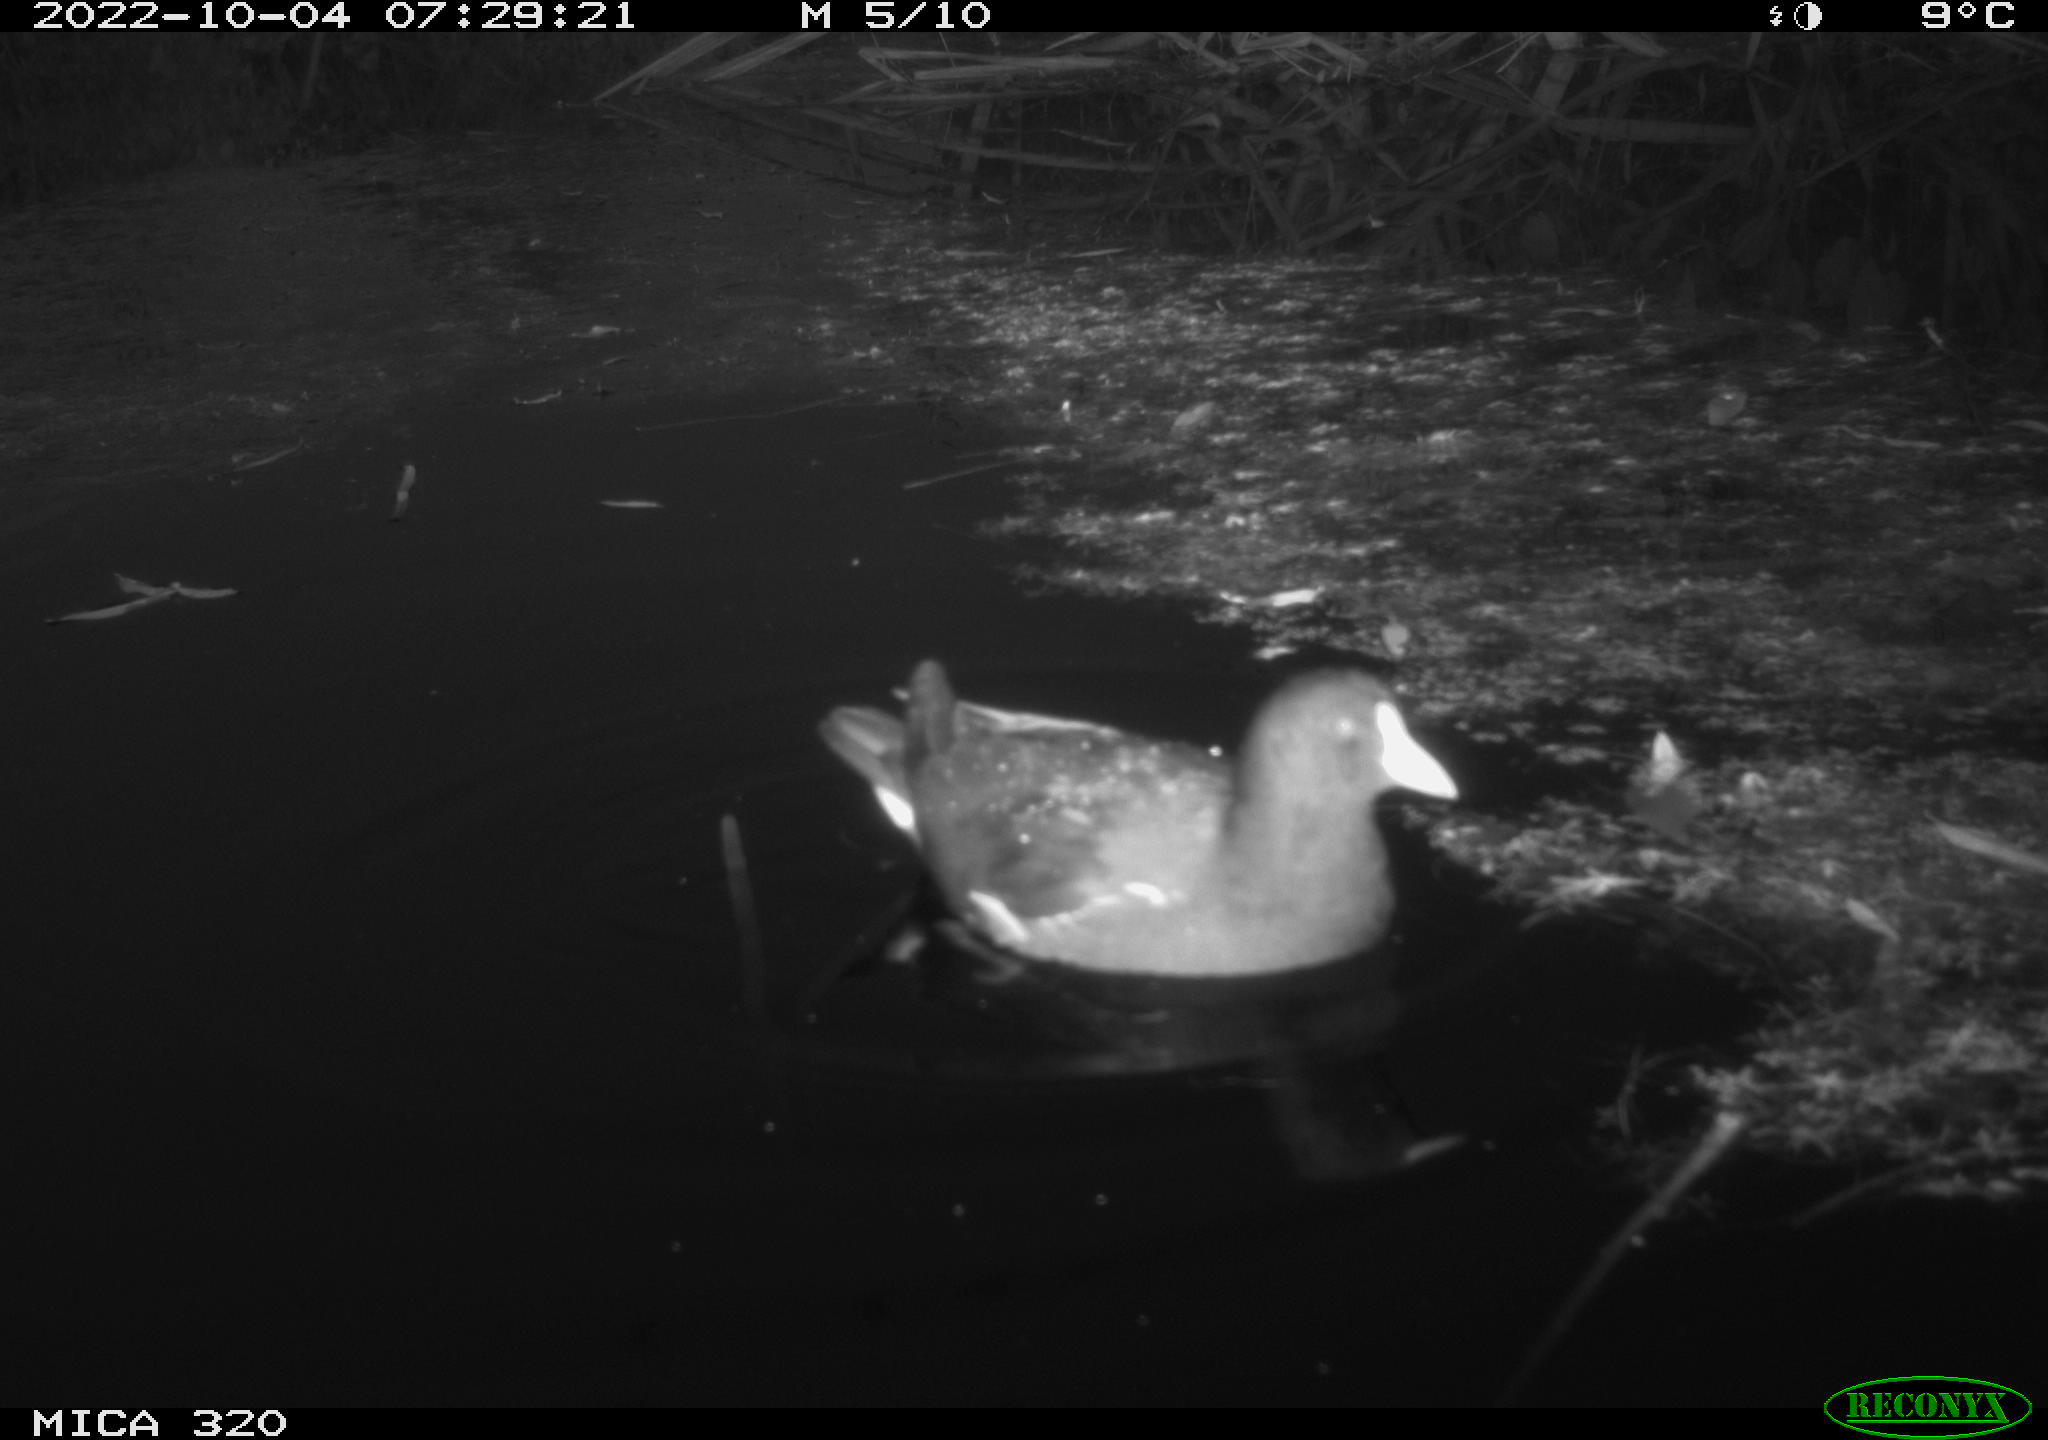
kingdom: Animalia
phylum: Chordata
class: Aves
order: Anseriformes
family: Anatidae
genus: Anas
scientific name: Anas
